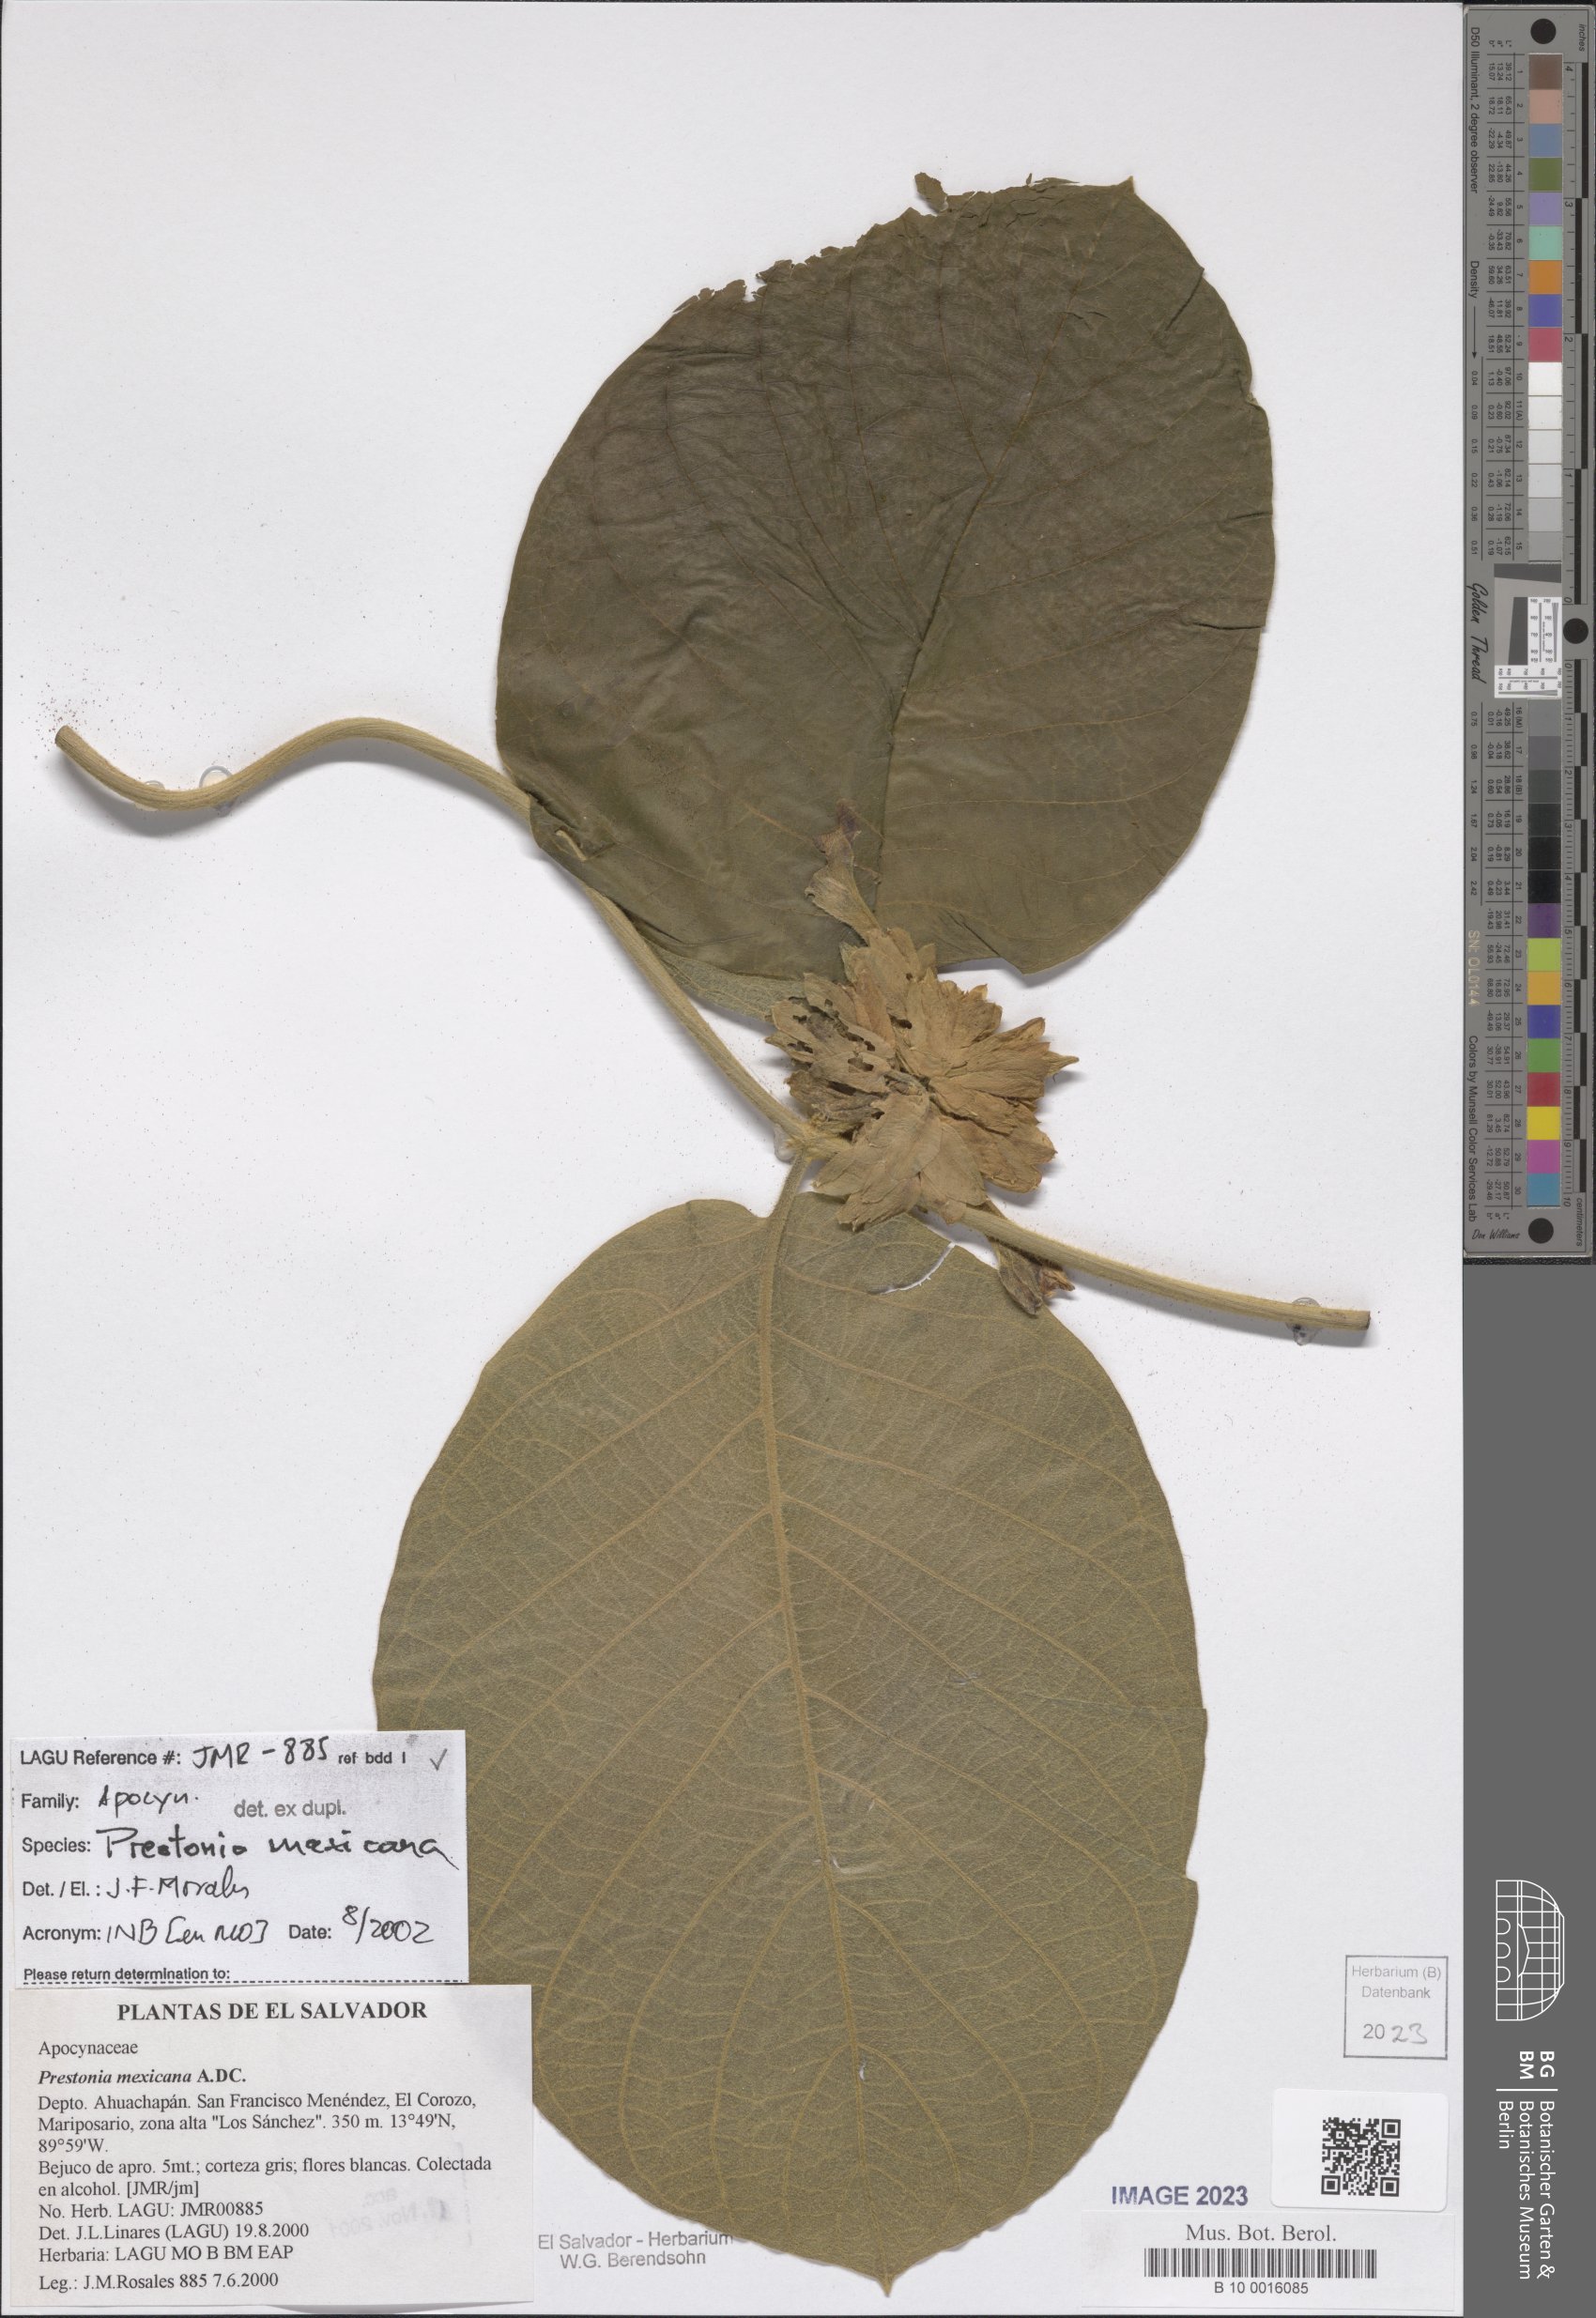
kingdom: Plantae
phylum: Tracheophyta
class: Magnoliopsida
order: Gentianales
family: Apocynaceae
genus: Prestonia
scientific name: Prestonia mexicana
